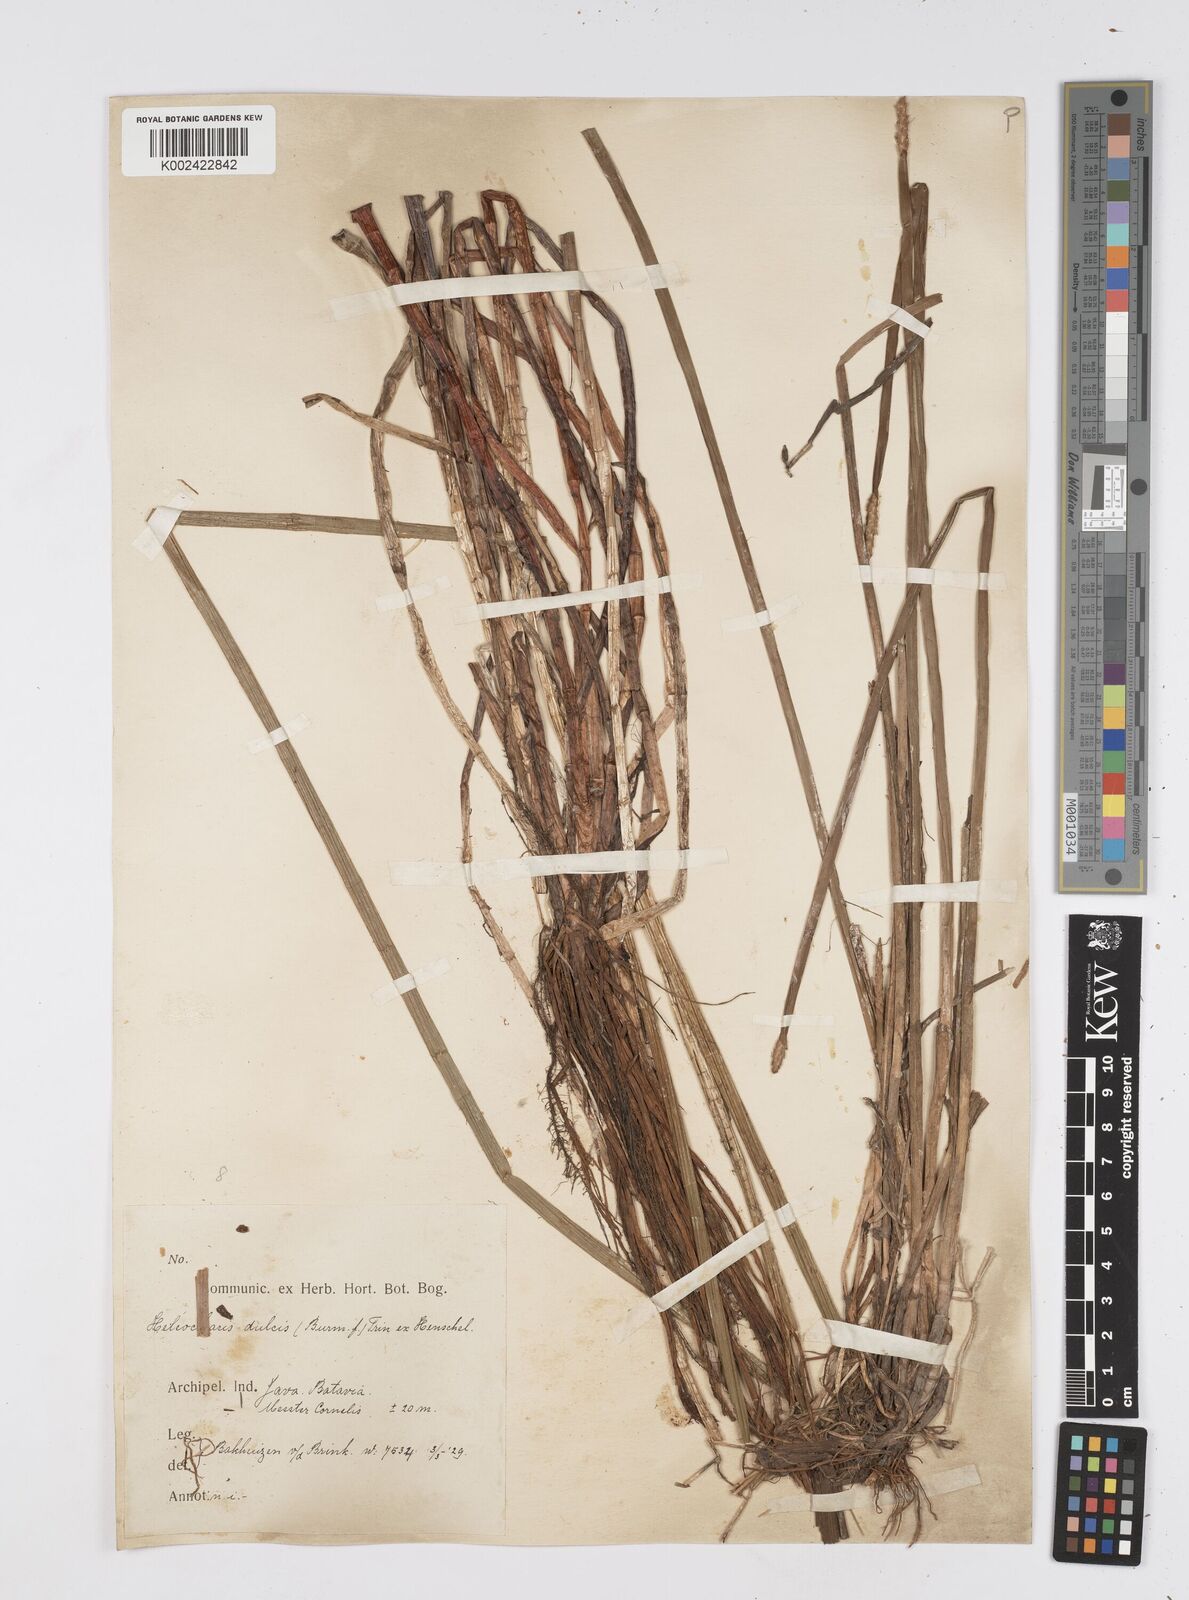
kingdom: Plantae
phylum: Tracheophyta
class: Liliopsida
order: Poales
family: Cyperaceae
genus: Eleocharis
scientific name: Eleocharis dulcis
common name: Chinese water chestnut
